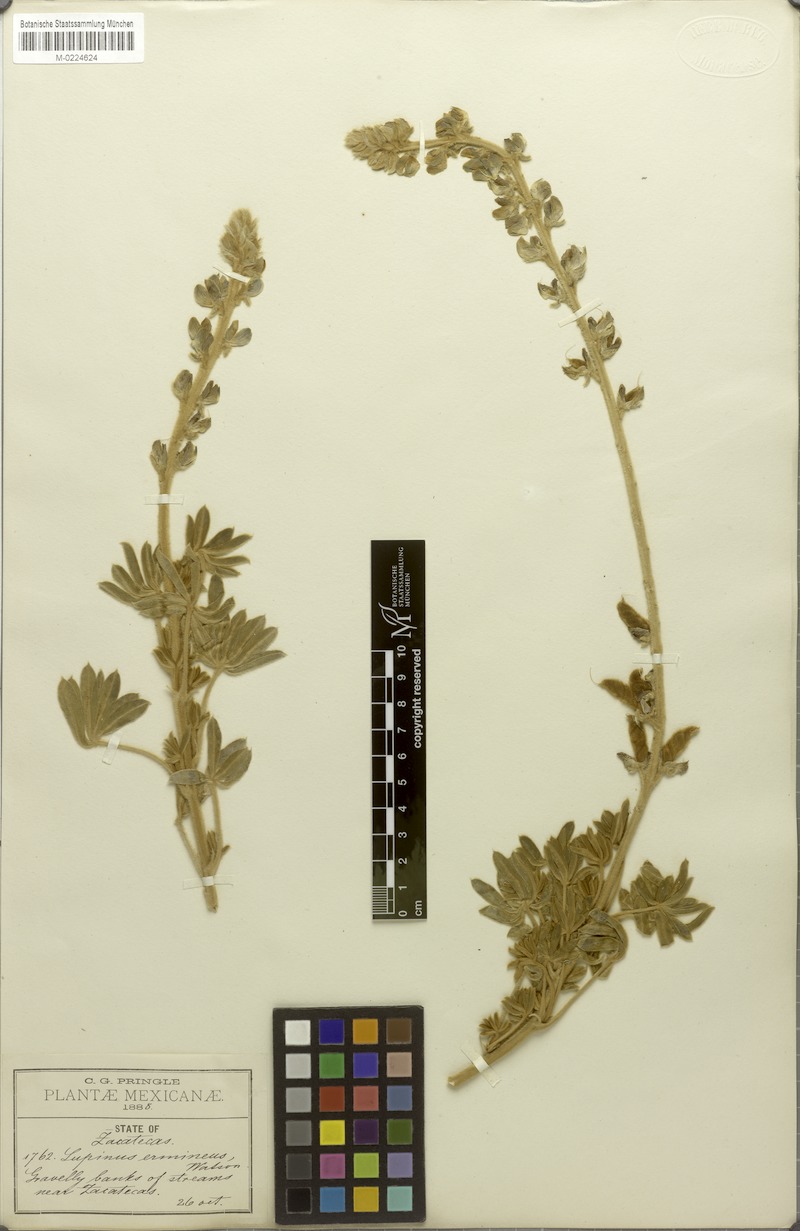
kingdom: Plantae
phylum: Tracheophyta
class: Magnoliopsida
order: Fabales
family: Fabaceae
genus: Lupinus
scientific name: Lupinus ermineus
